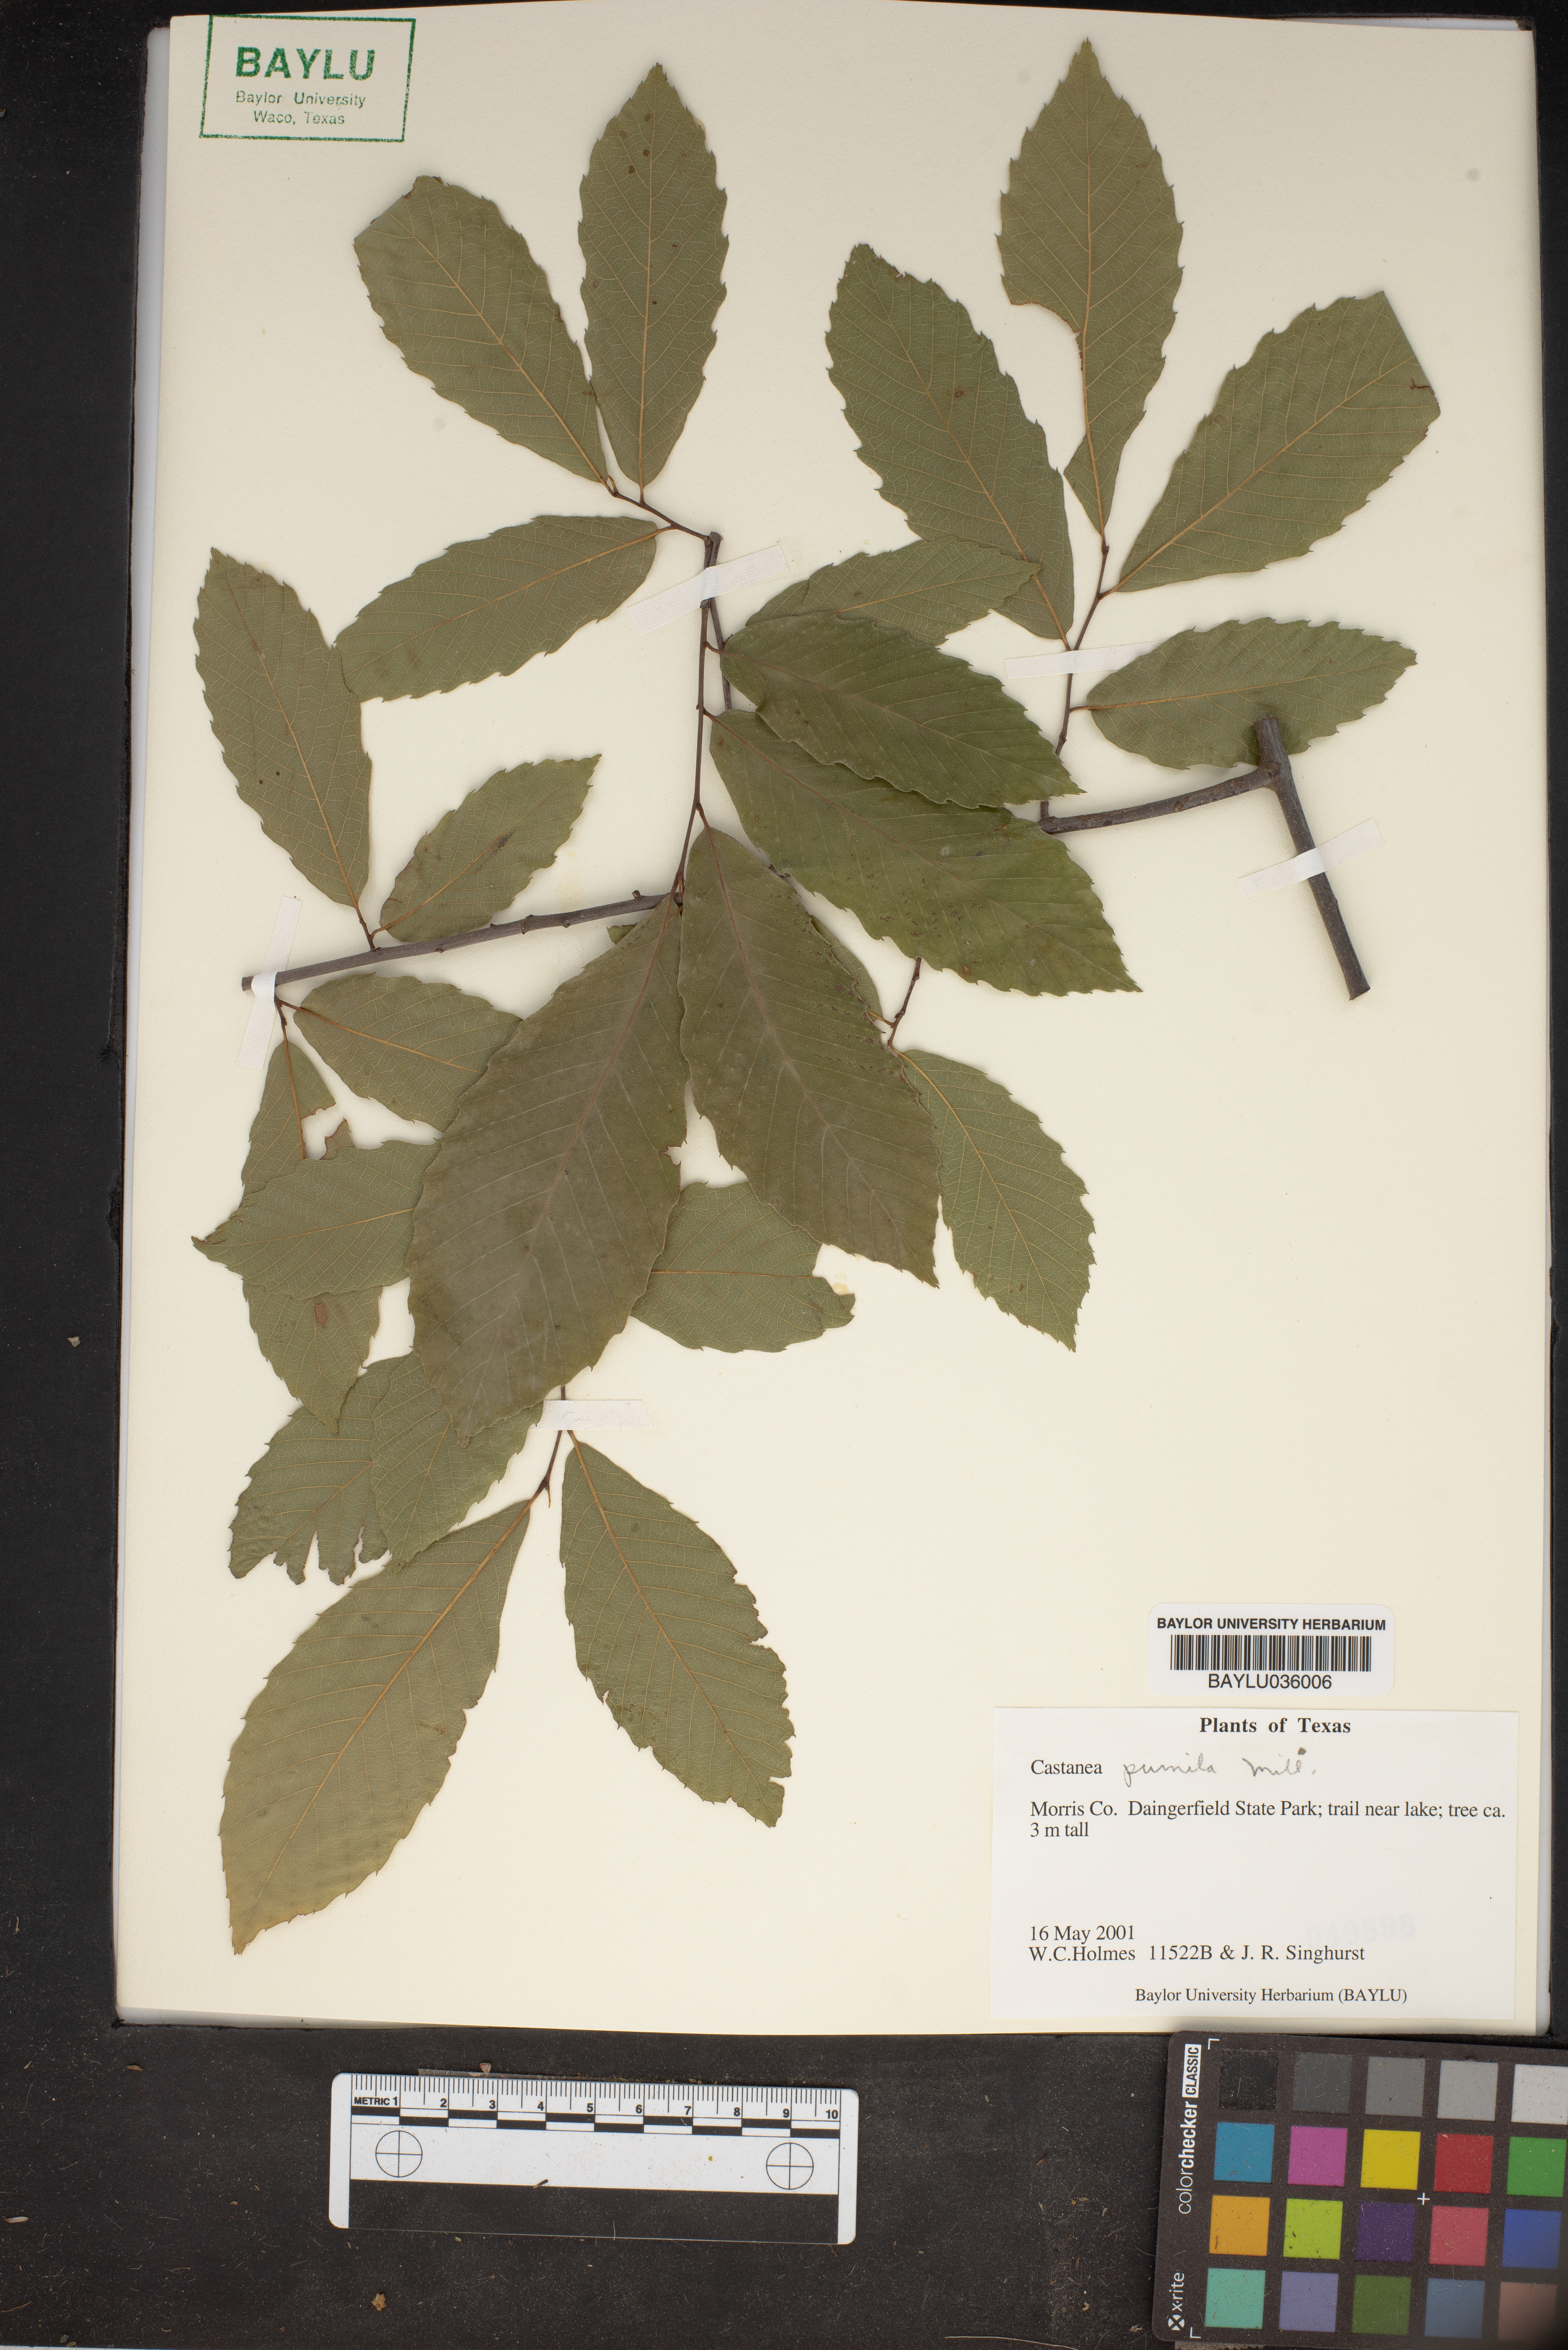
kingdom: Plantae
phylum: Tracheophyta
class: Magnoliopsida
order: Fagales
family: Fagaceae
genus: Castanea
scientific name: Castanea pumila
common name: Chinkapin
